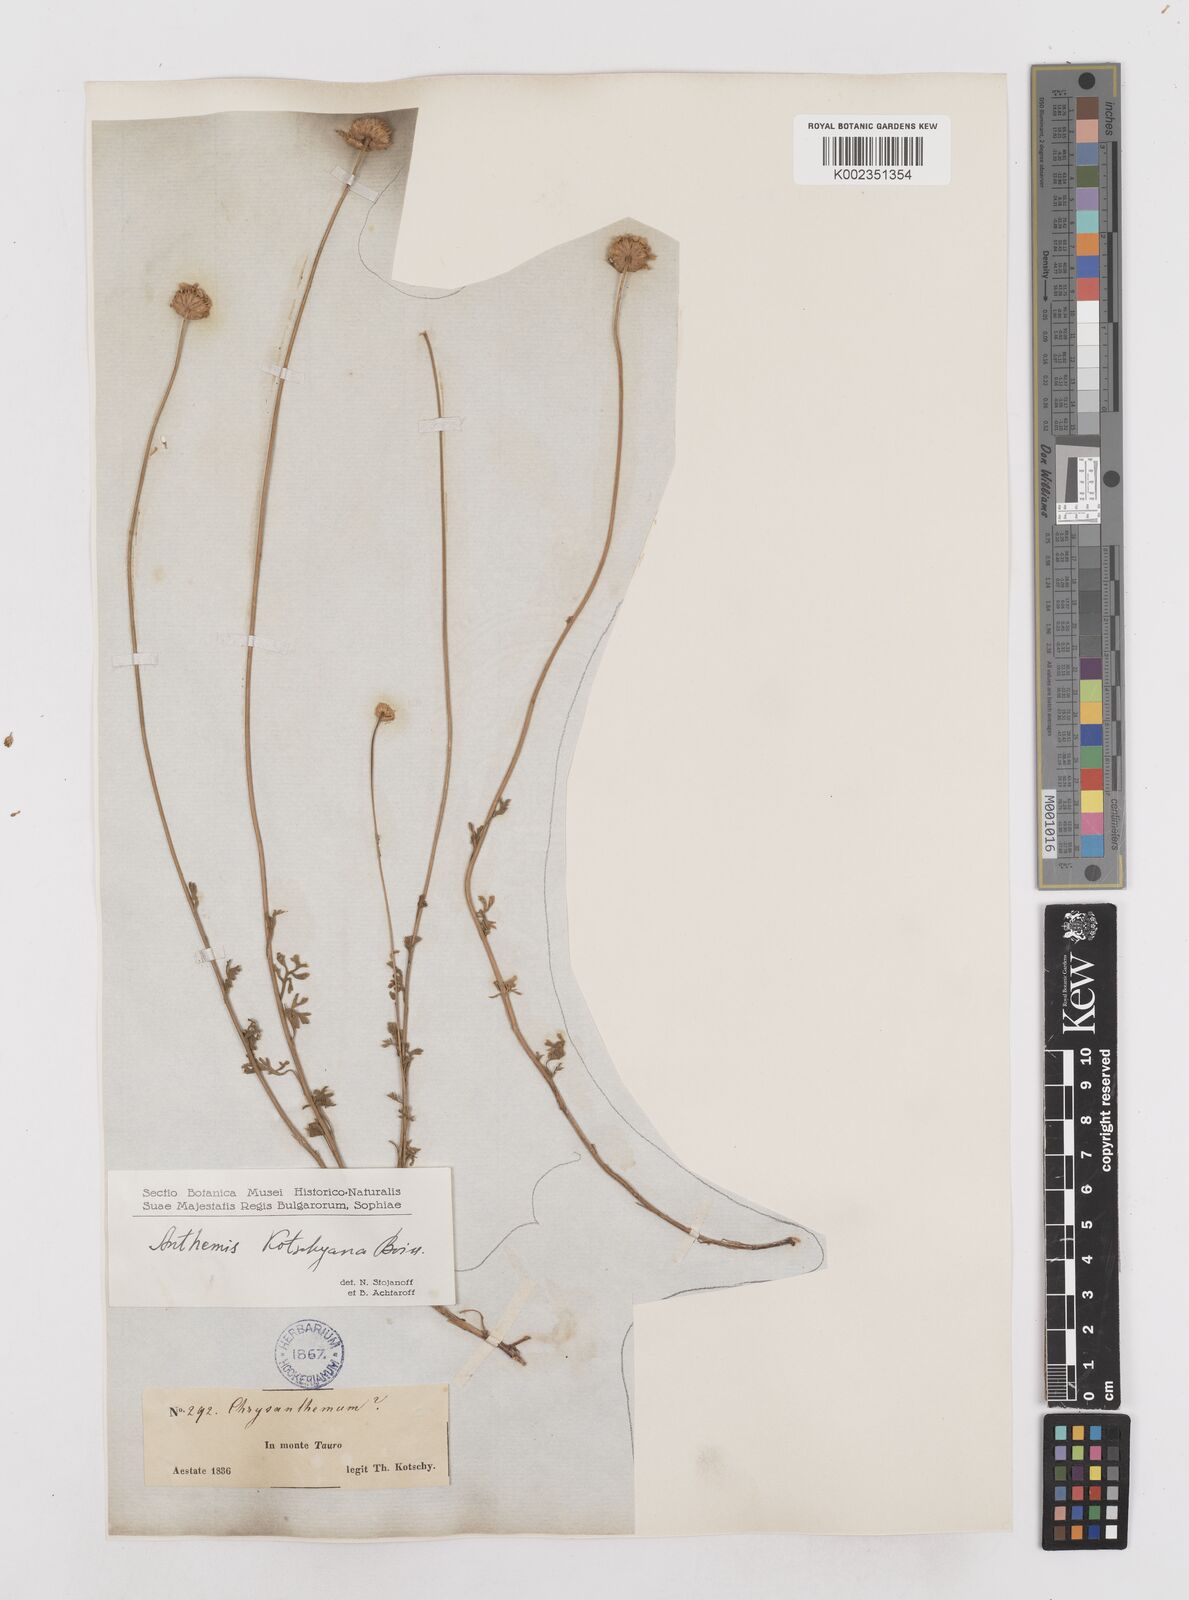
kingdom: Plantae
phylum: Tracheophyta
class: Magnoliopsida
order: Asterales
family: Asteraceae
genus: Anthemis
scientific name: Anthemis kotschyana
